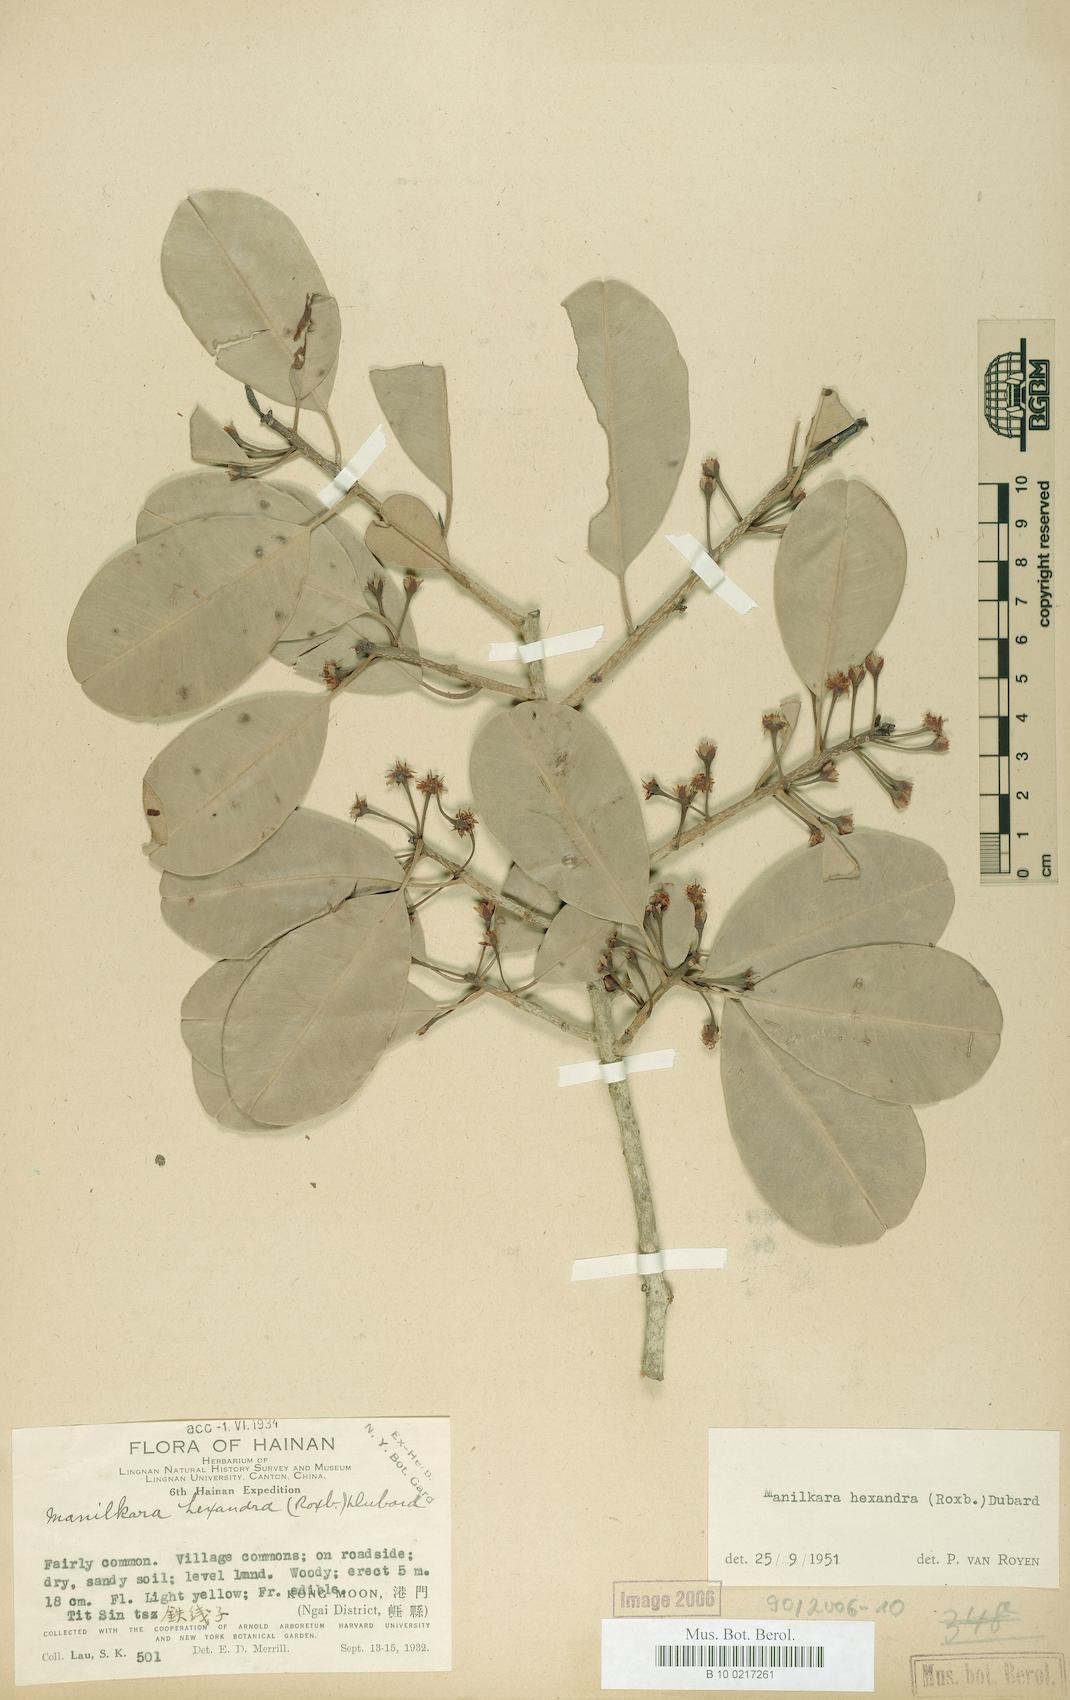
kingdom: Plantae
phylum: Tracheophyta
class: Magnoliopsida
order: Ericales
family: Sapotaceae
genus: Manilkara
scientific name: Manilkara hexandra
